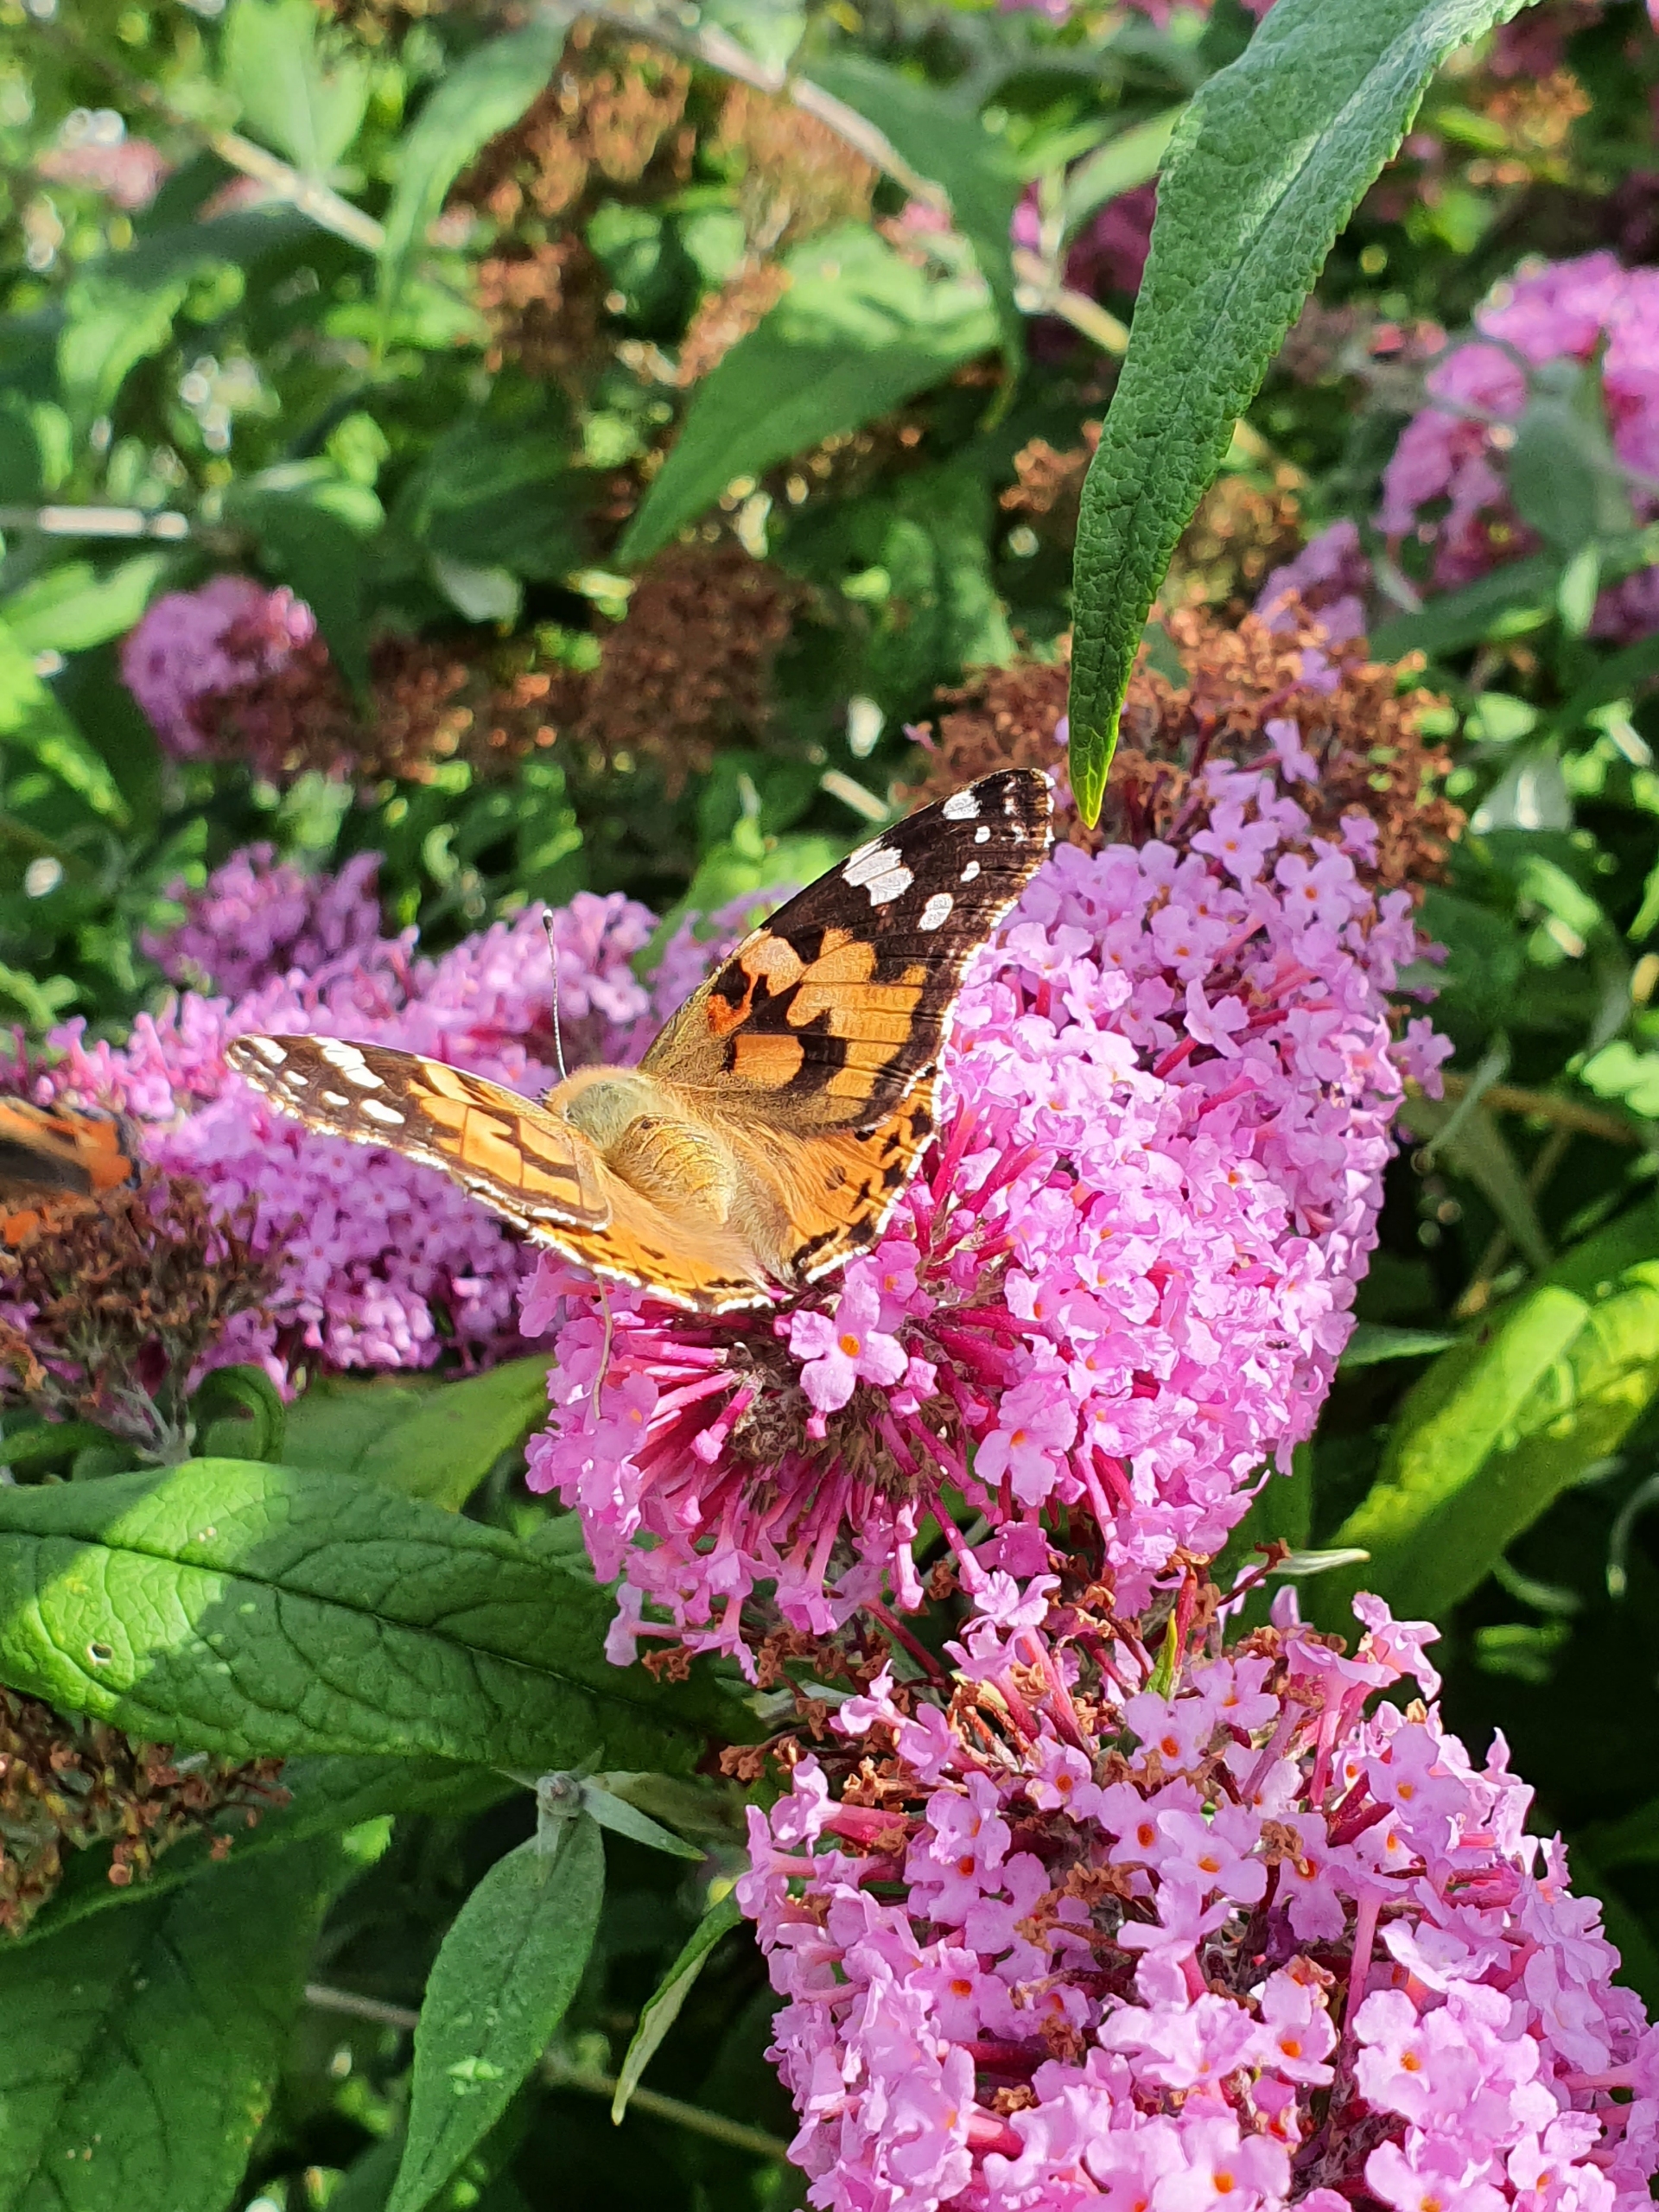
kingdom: Animalia
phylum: Arthropoda
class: Insecta
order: Lepidoptera
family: Nymphalidae
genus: Vanessa
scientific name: Vanessa cardui
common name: Tidselsommerfugl
